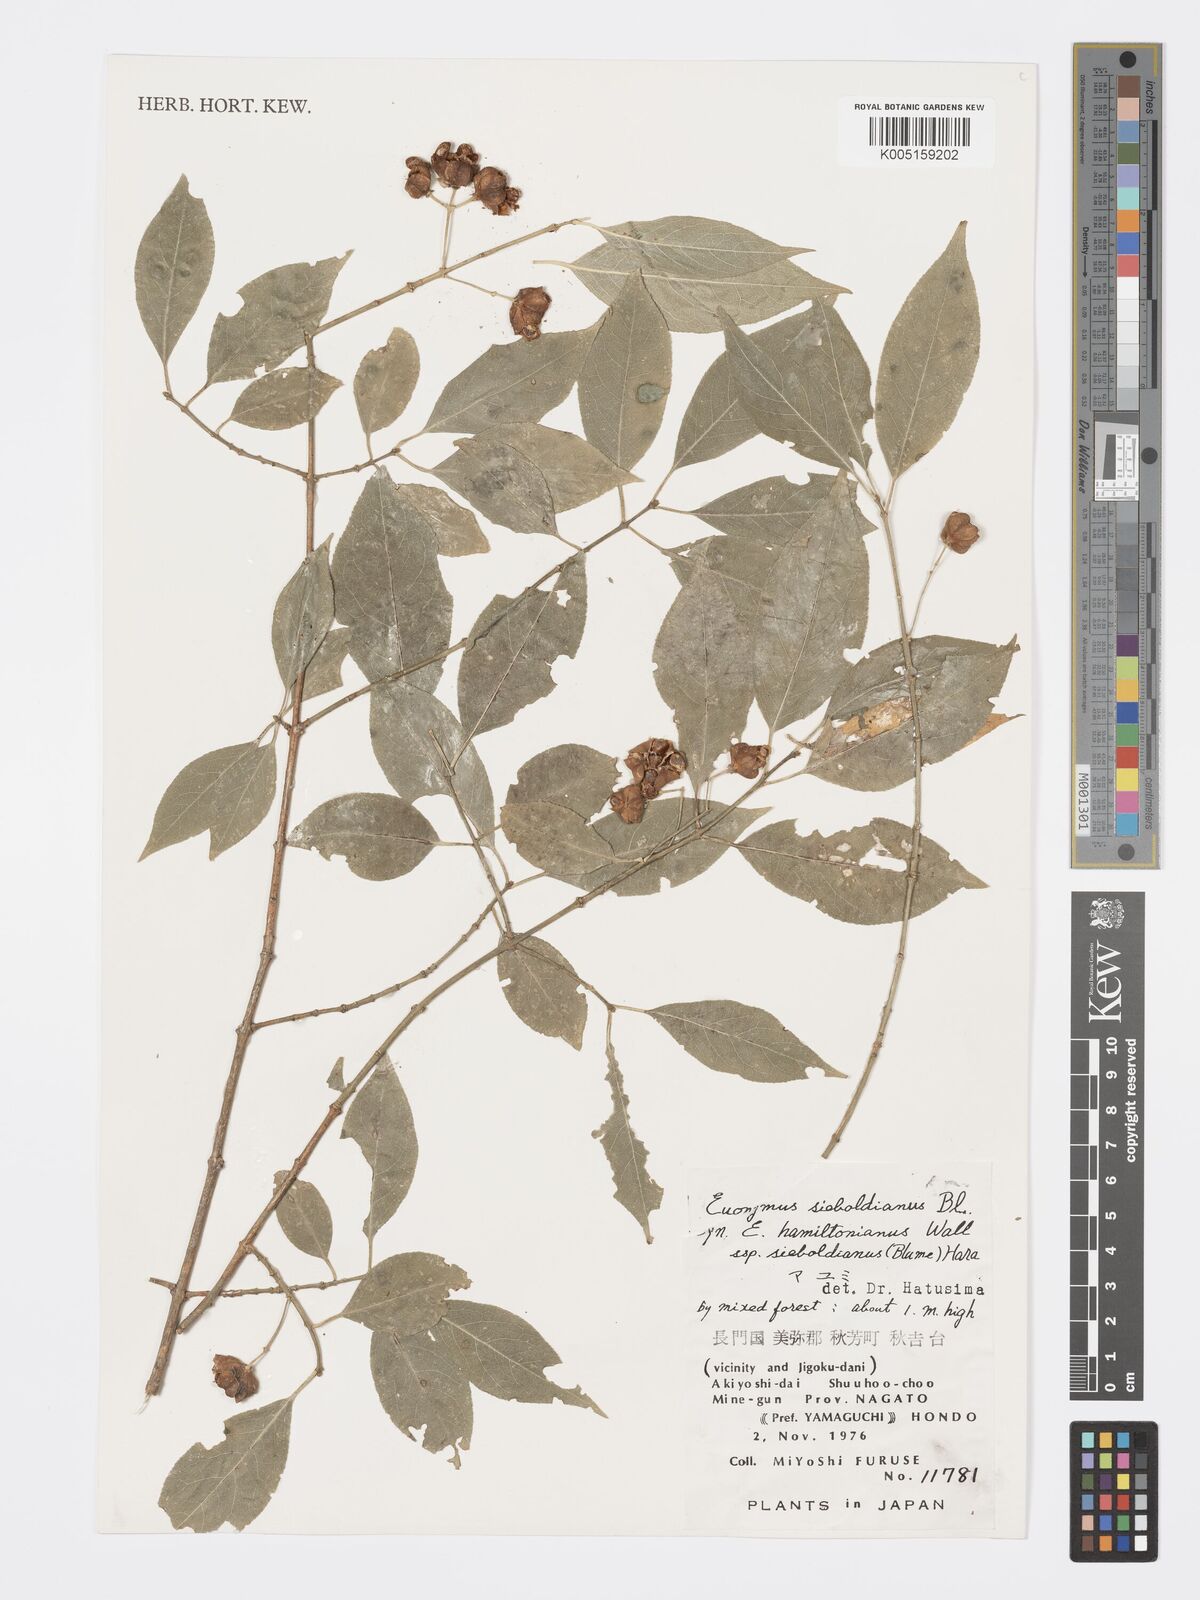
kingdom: Plantae
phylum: Tracheophyta
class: Magnoliopsida
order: Celastrales
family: Celastraceae
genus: Euonymus
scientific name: Euonymus hamiltonianus
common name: Hamilton's spindletree
